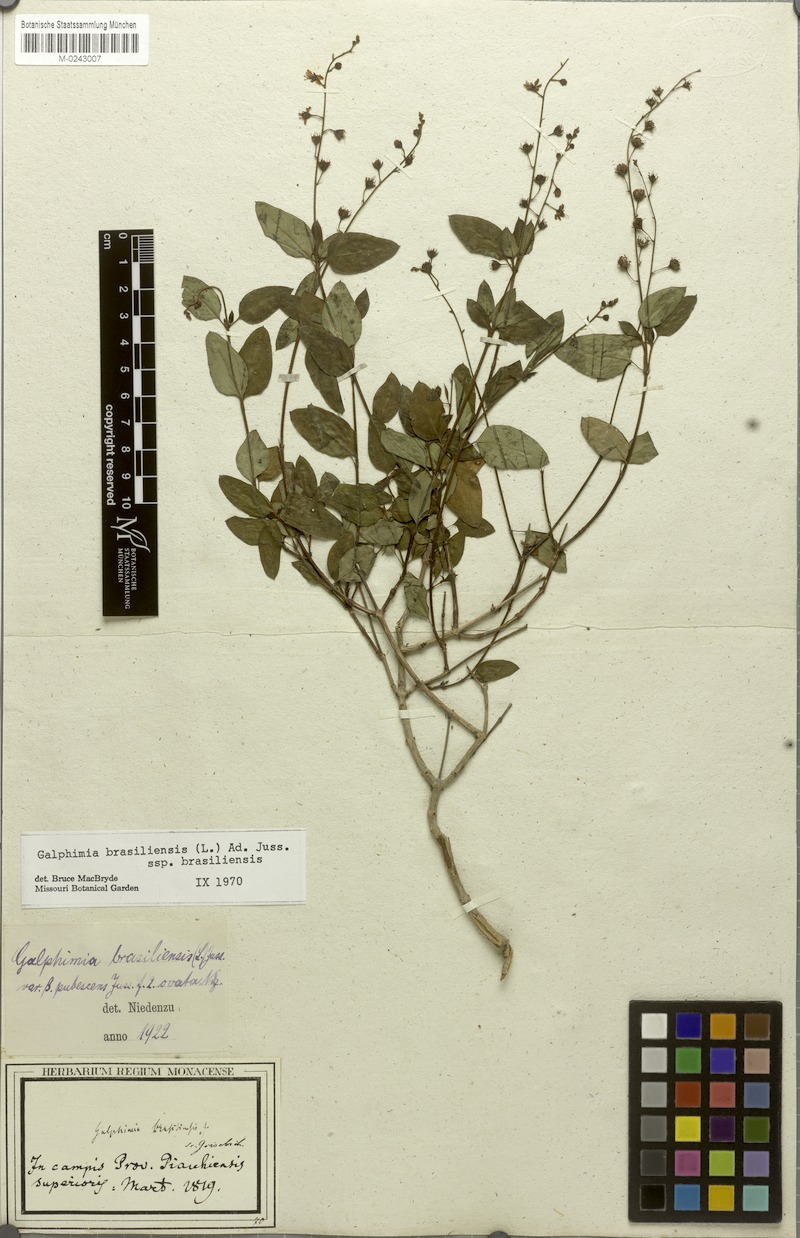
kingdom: Plantae
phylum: Tracheophyta
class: Magnoliopsida
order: Malpighiales
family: Malpighiaceae
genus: Galphimia
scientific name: Galphimia brasiliensis
